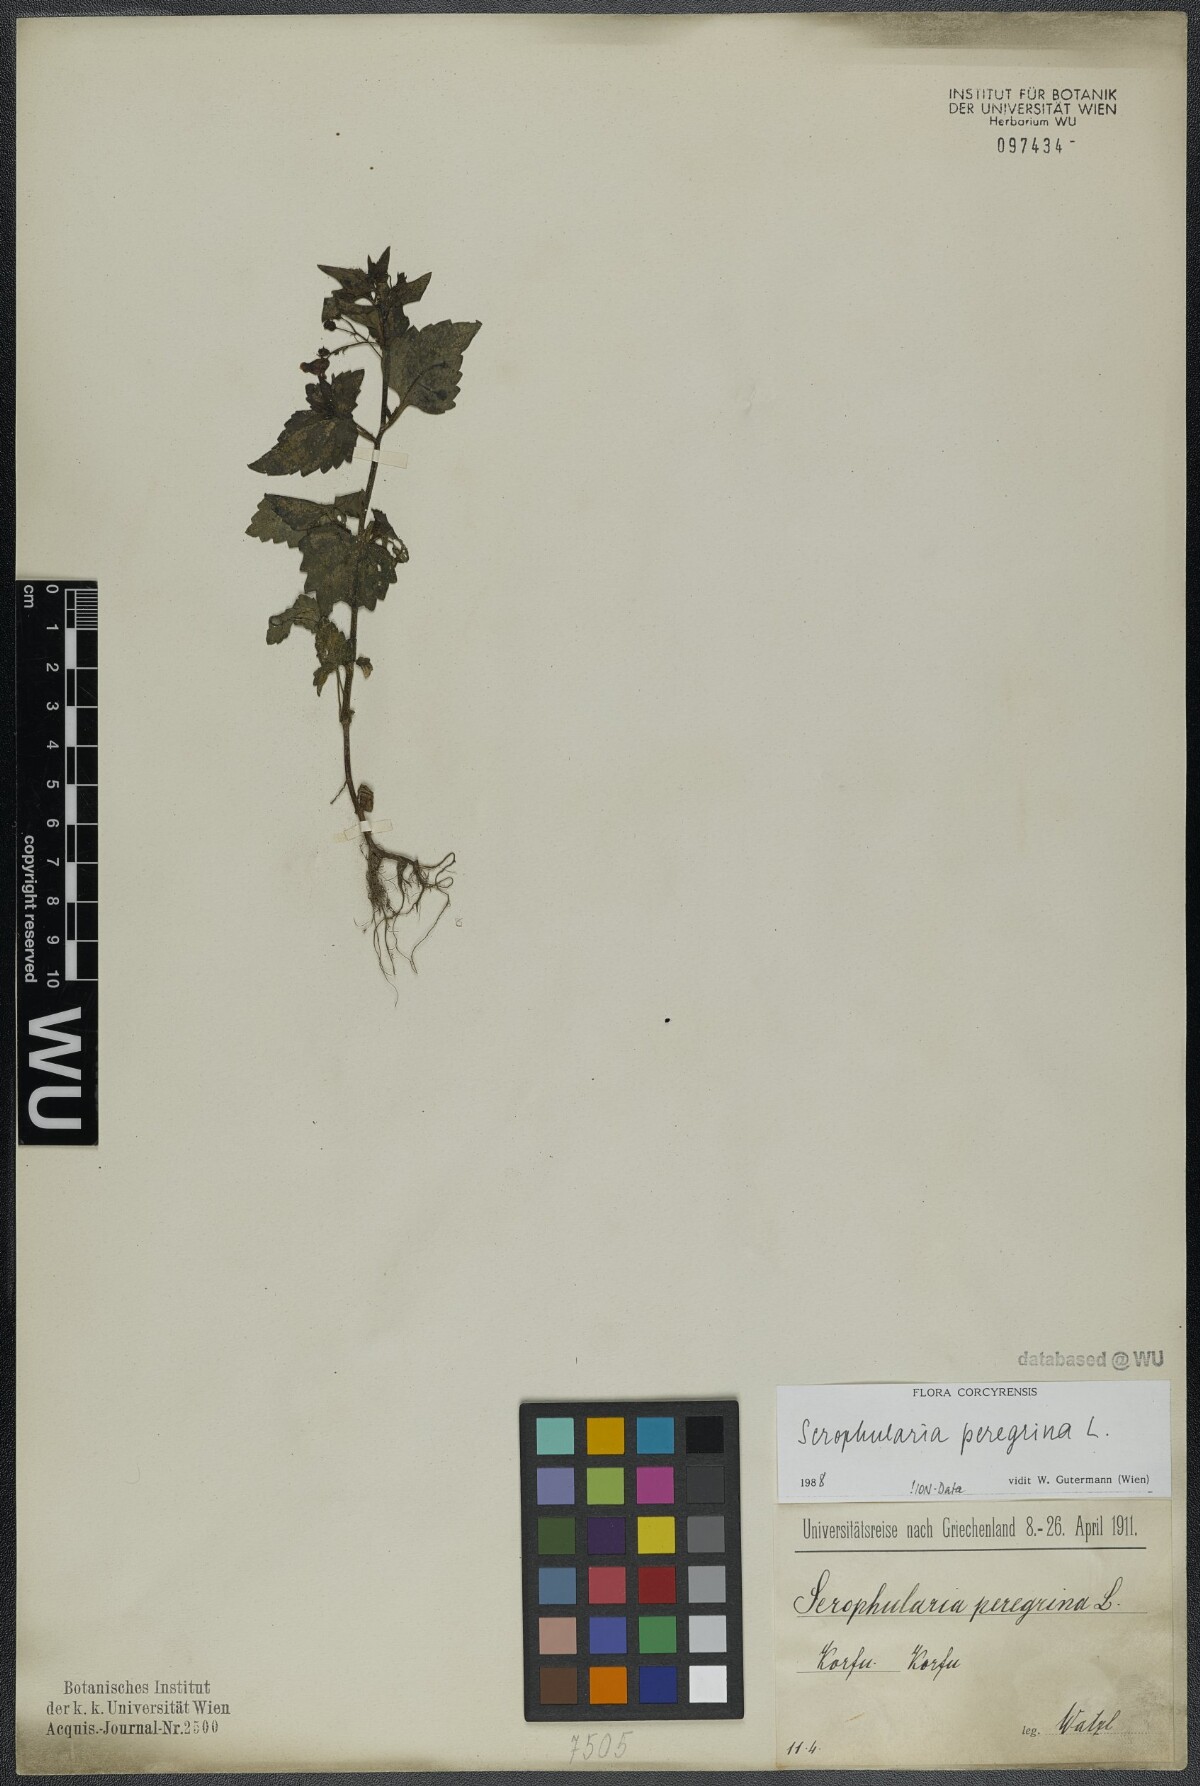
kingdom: Plantae
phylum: Tracheophyta
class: Magnoliopsida
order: Lamiales
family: Scrophulariaceae
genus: Scrophularia
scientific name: Scrophularia peregrina
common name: Mediterranean figwort
